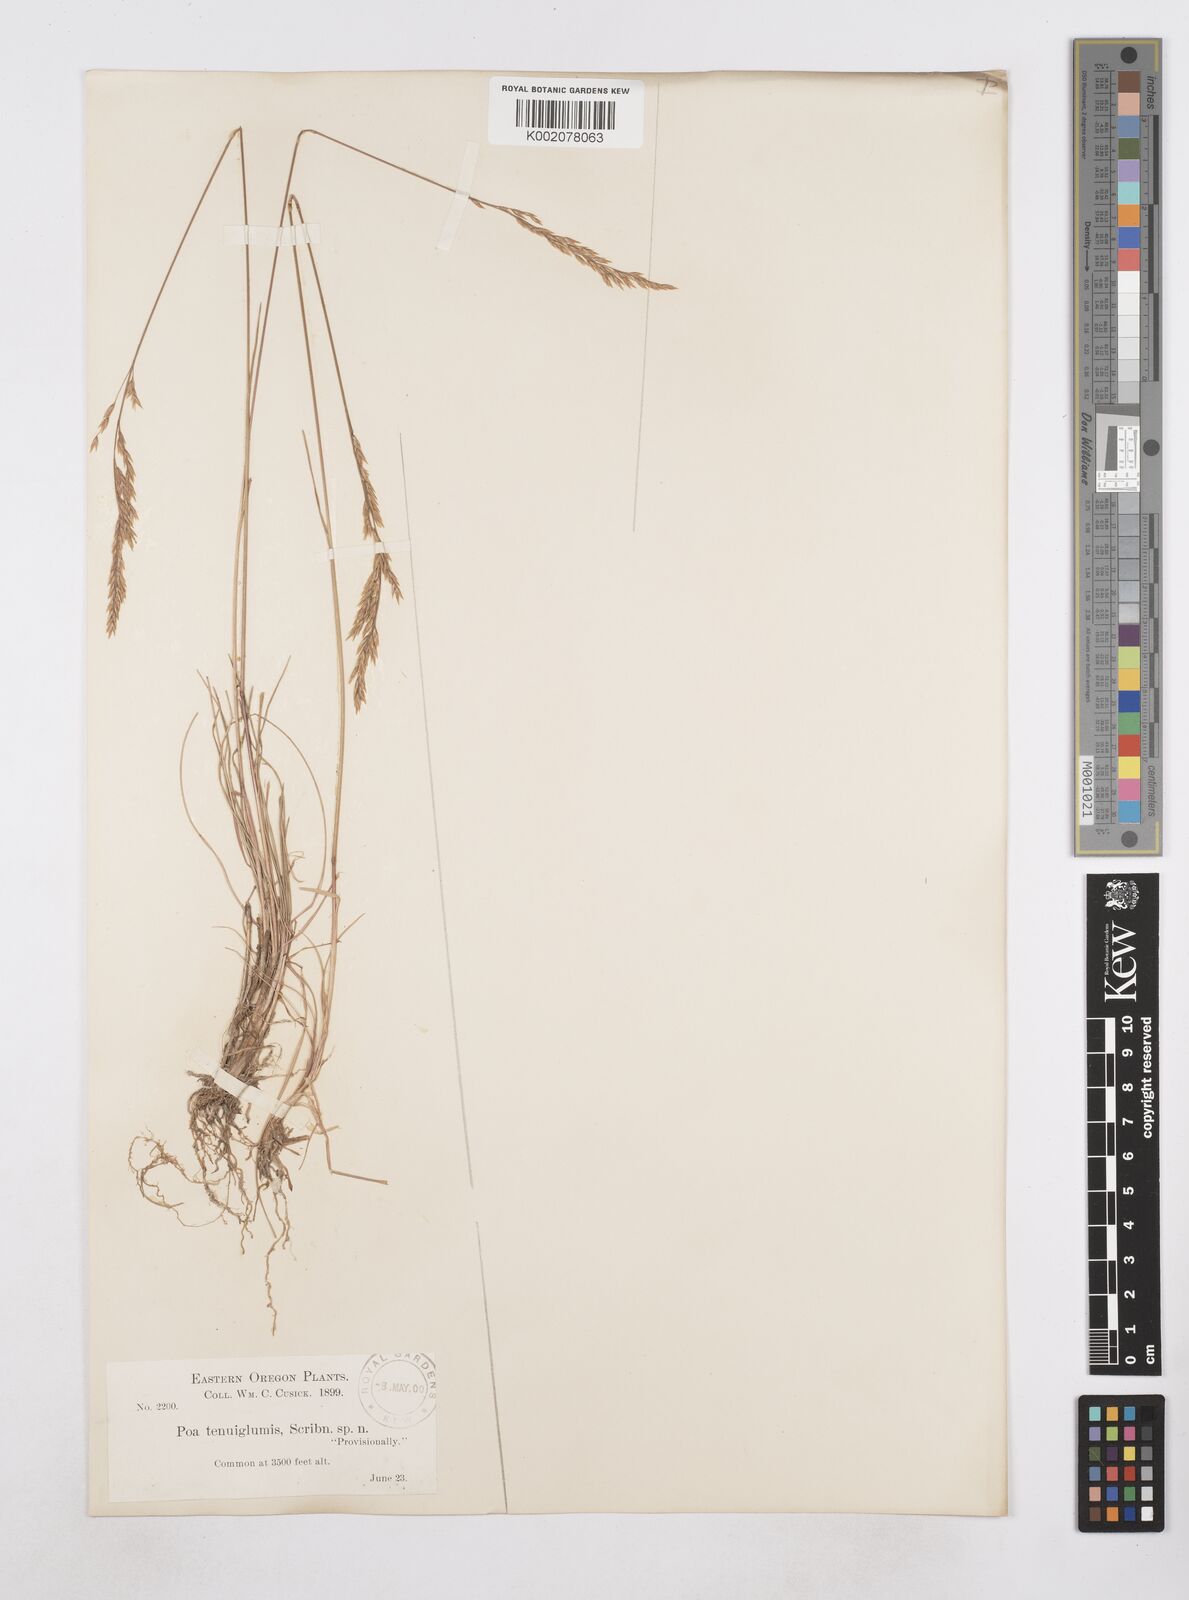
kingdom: Plantae
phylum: Tracheophyta
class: Liliopsida
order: Poales
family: Poaceae
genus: Poa
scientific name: Poa
